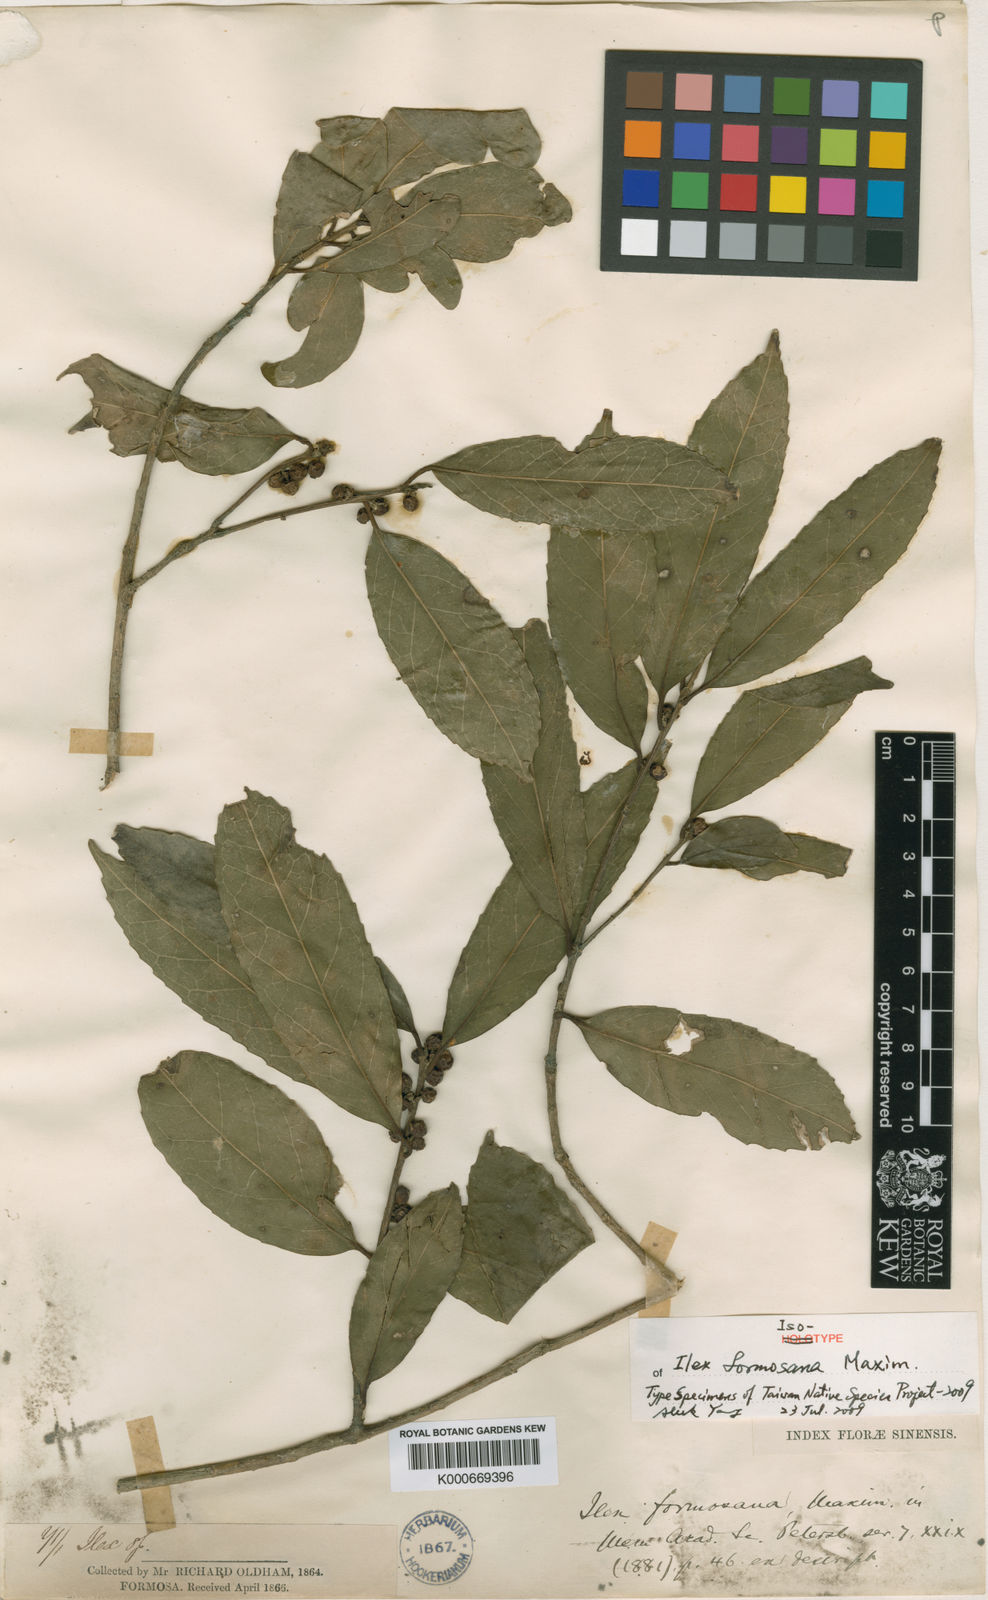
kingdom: Plantae
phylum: Tracheophyta
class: Magnoliopsida
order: Aquifoliales
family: Aquifoliaceae
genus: Ilex
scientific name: Ilex formosana
